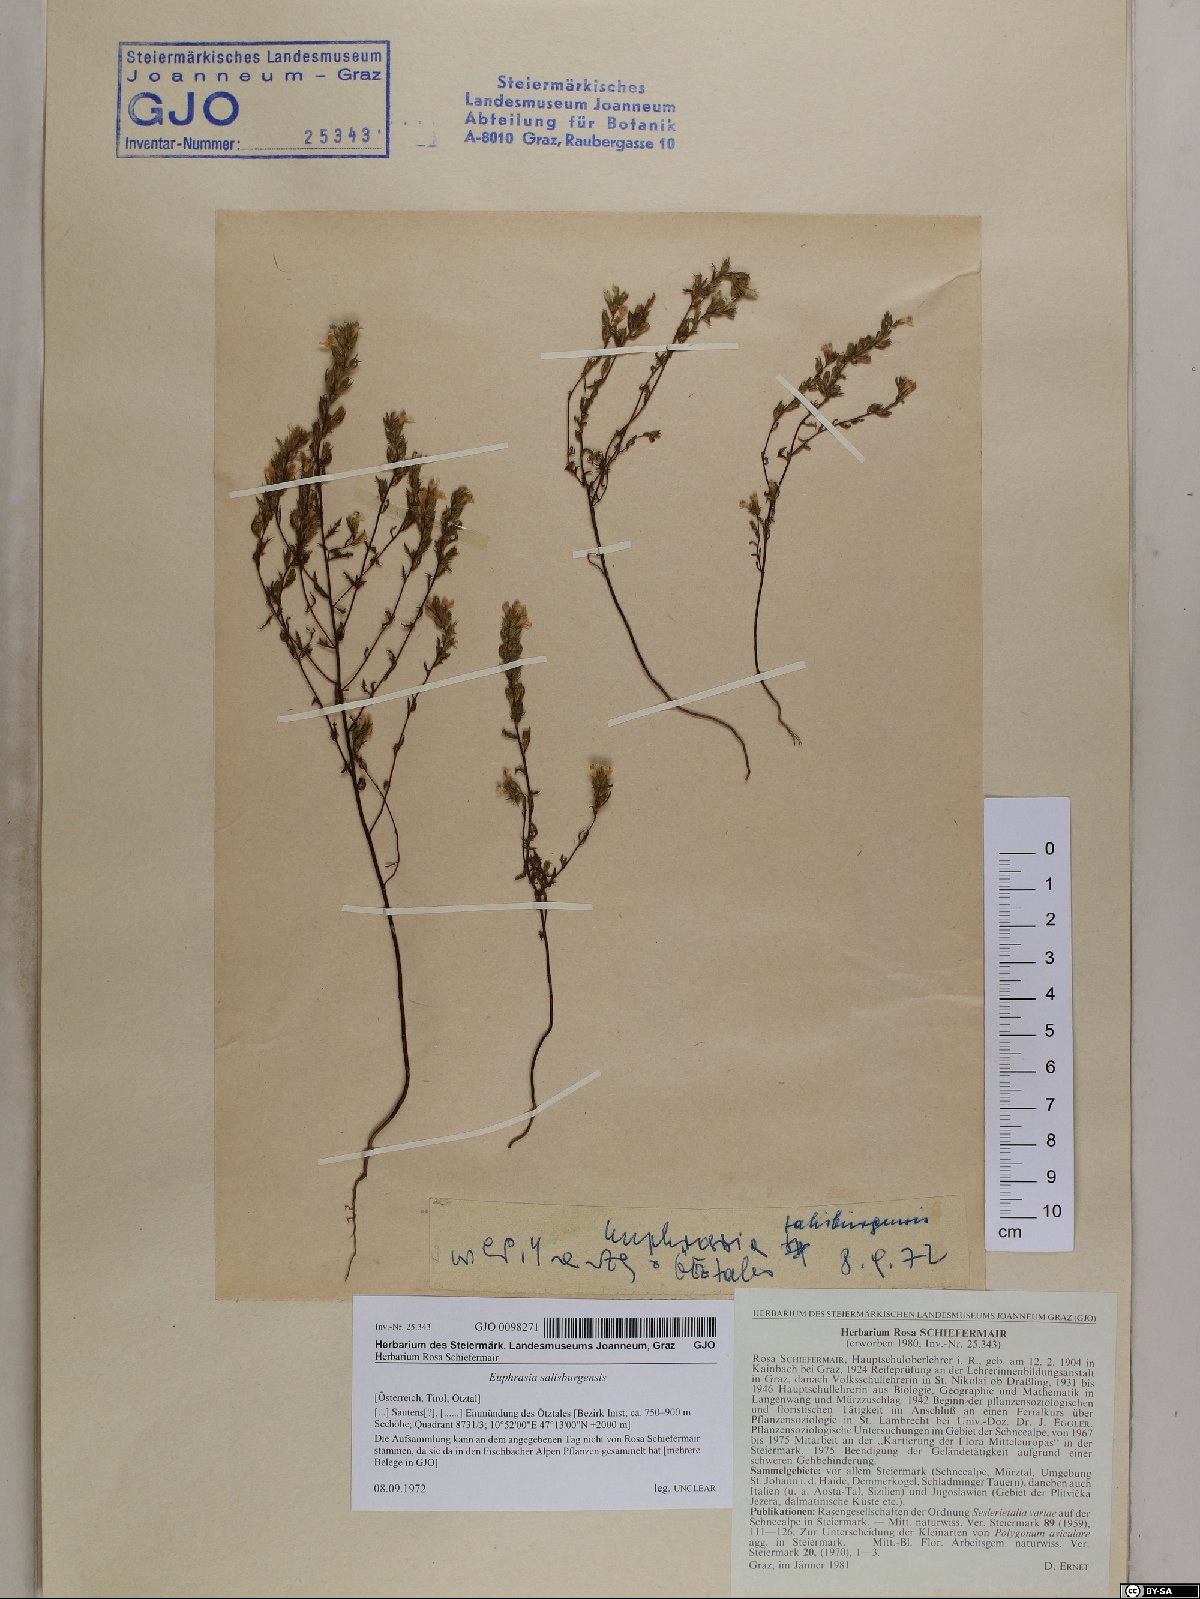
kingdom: Plantae
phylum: Tracheophyta
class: Magnoliopsida
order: Lamiales
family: Orobanchaceae
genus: Euphrasia
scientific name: Euphrasia salisburgensis
